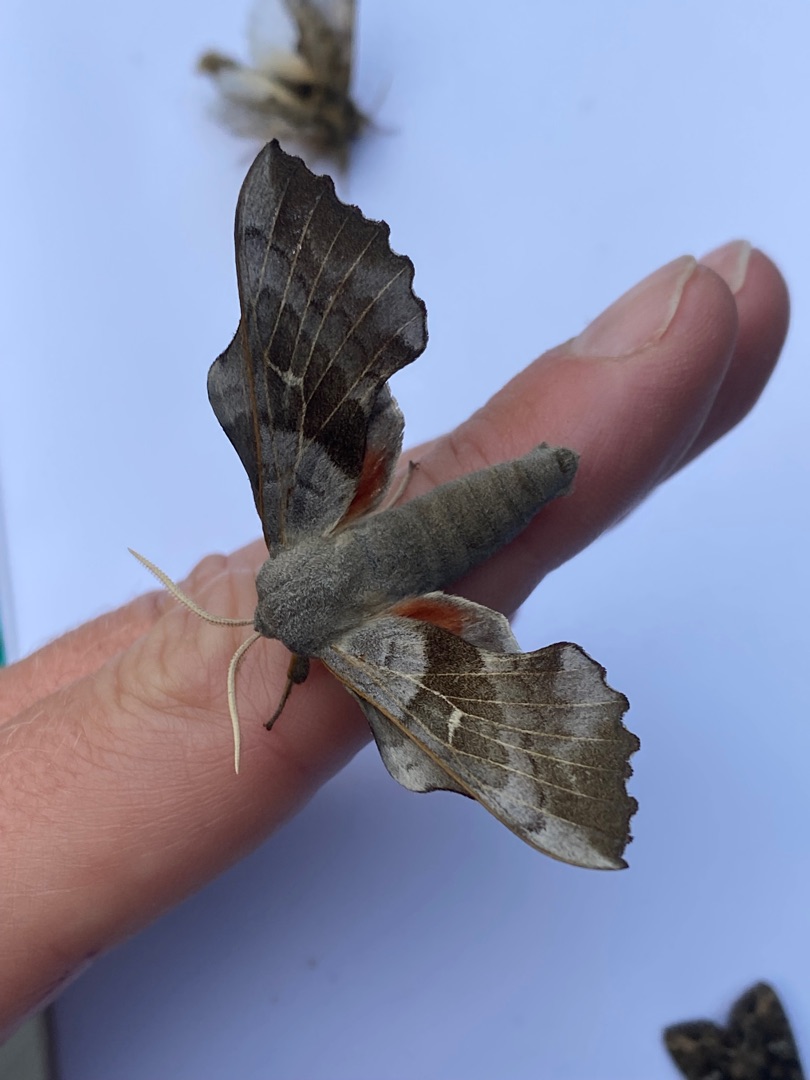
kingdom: Animalia
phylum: Arthropoda
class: Insecta
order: Lepidoptera
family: Sphingidae
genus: Laothoe
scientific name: Laothoe populi
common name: Poppelsværmer
